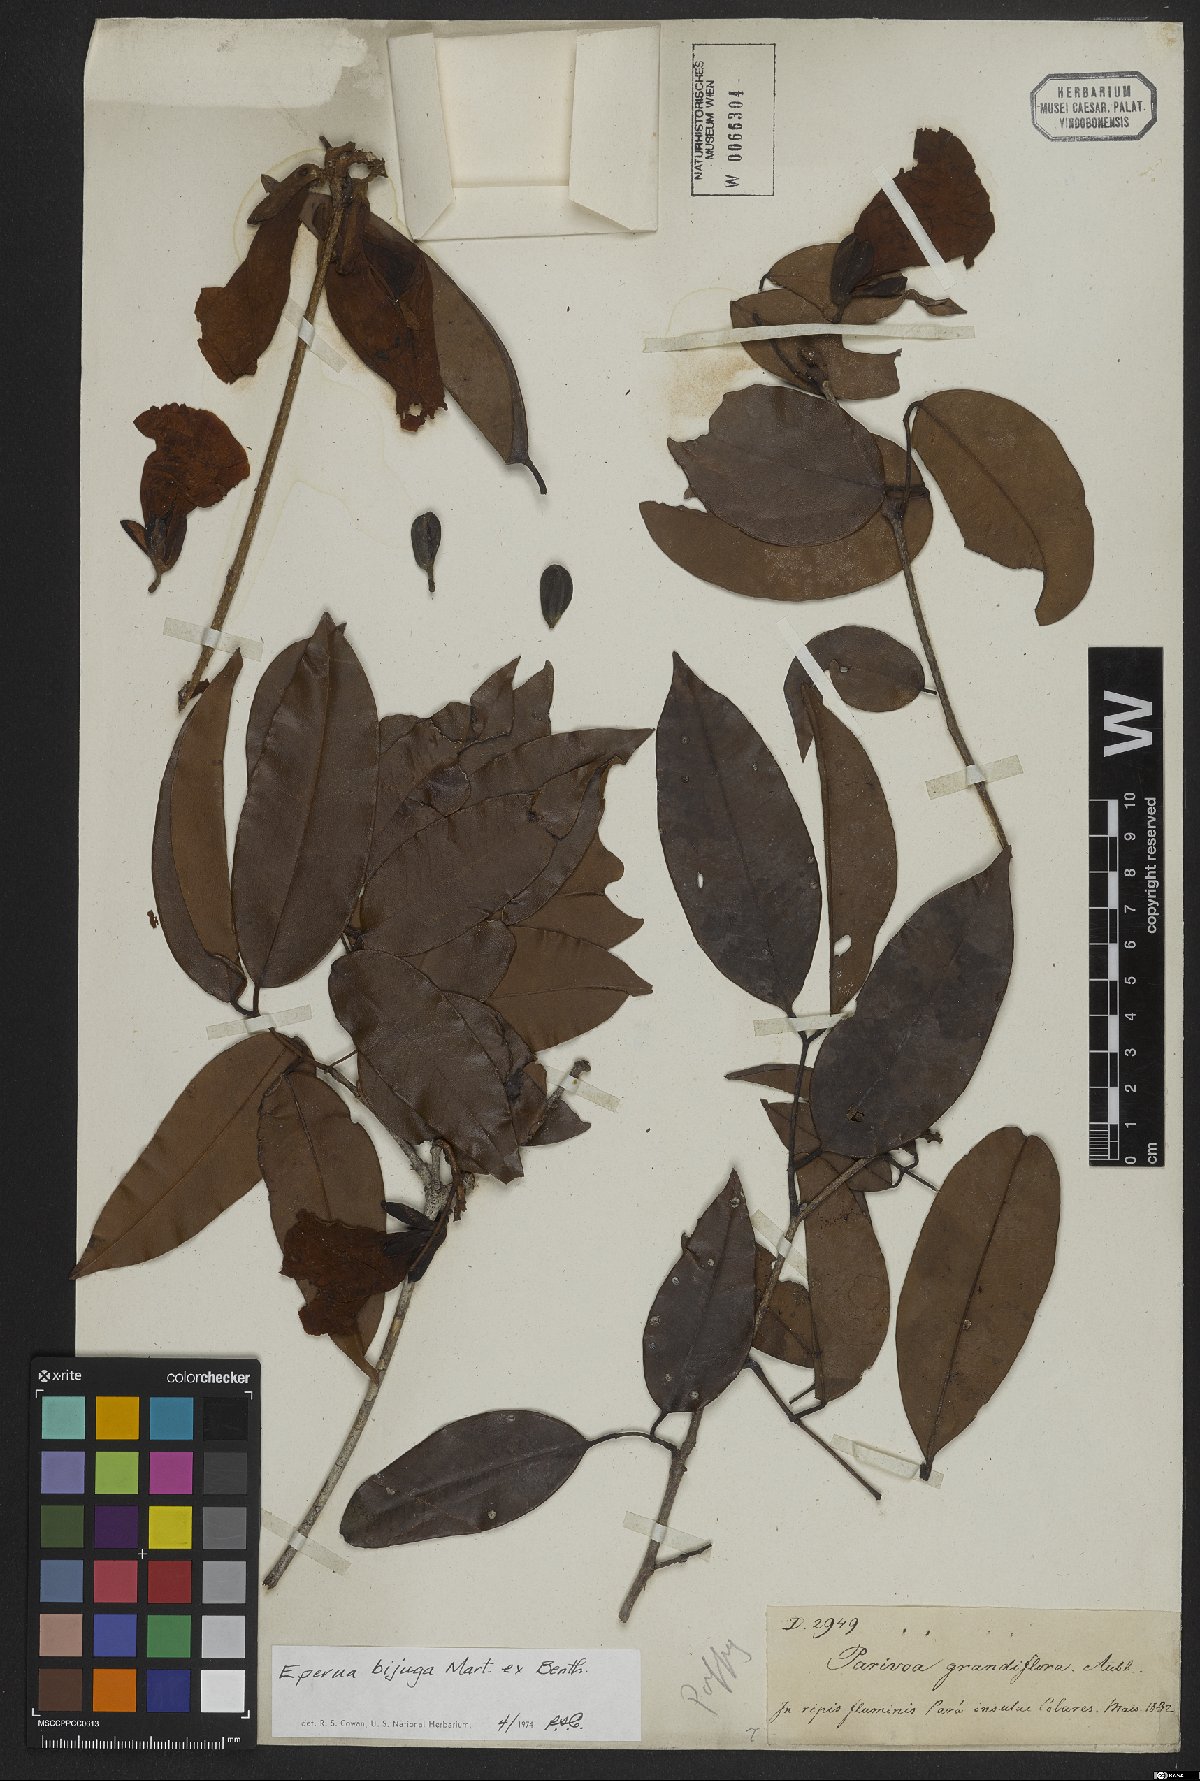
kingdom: Plantae
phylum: Tracheophyta
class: Magnoliopsida
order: Fabales
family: Fabaceae
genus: Eperua
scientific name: Eperua bijuga
